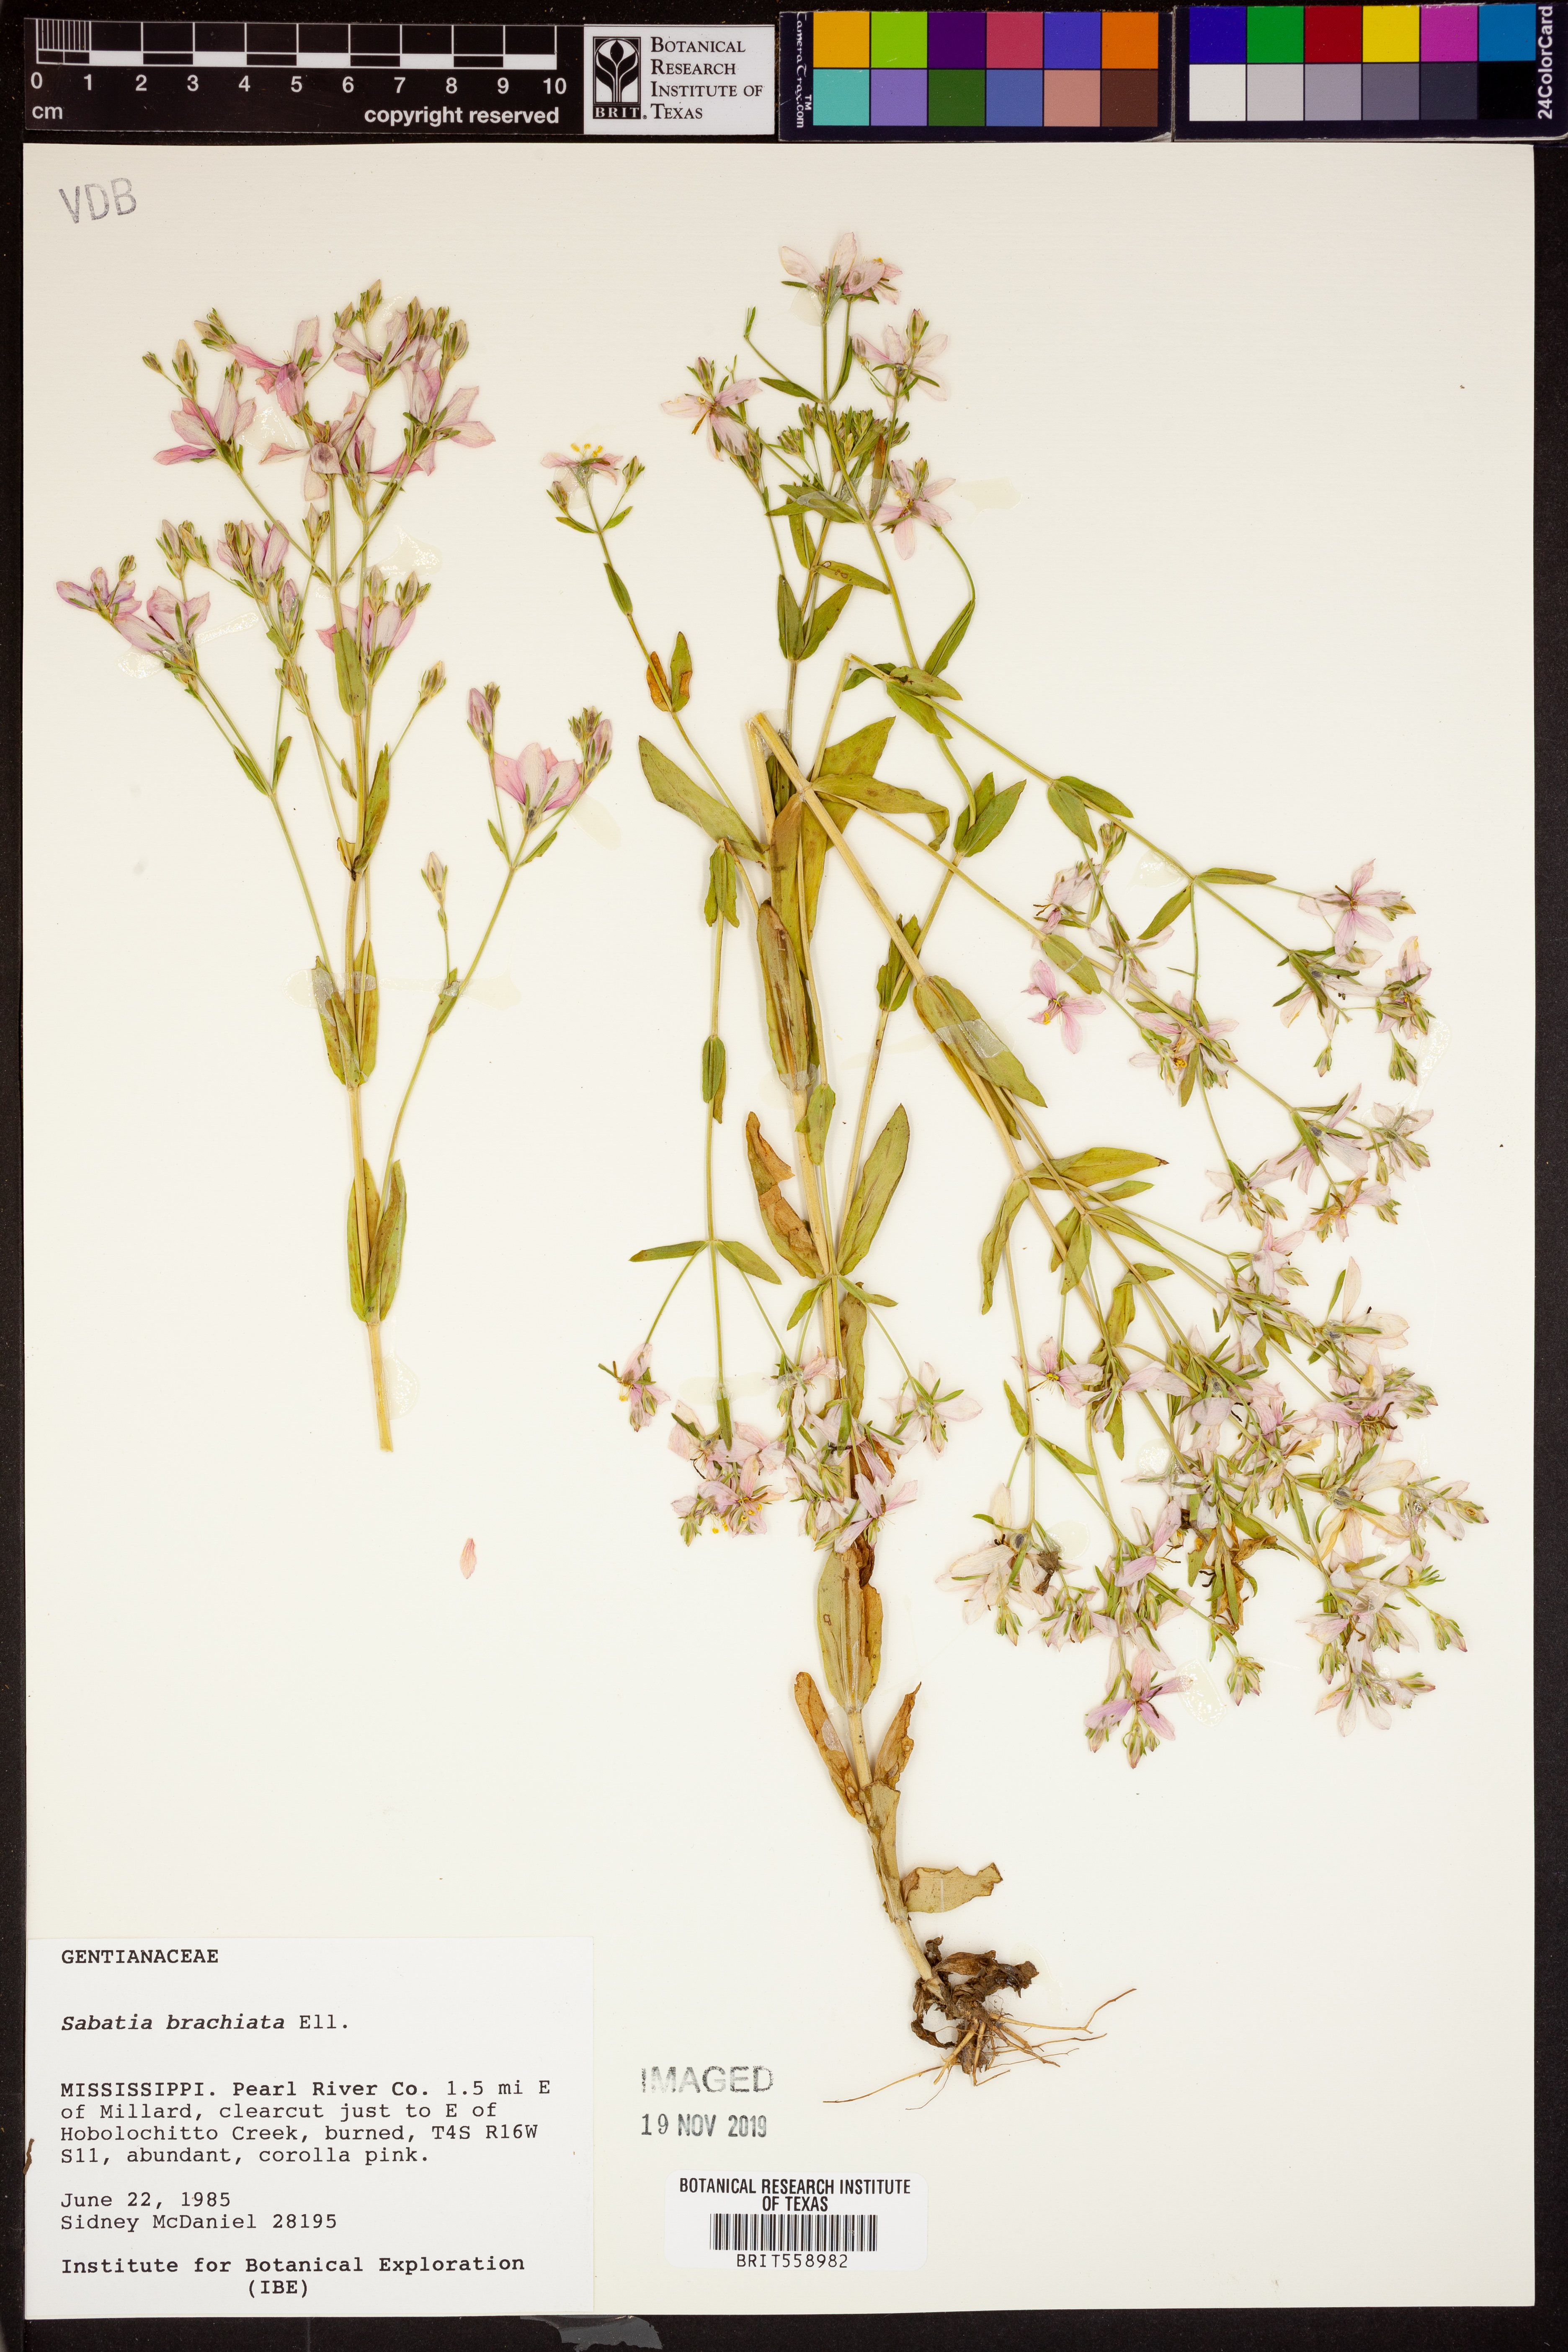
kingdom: Plantae
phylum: Tracheophyta
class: Magnoliopsida
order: Gentianales
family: Gentianaceae
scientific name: Gentianaceae
